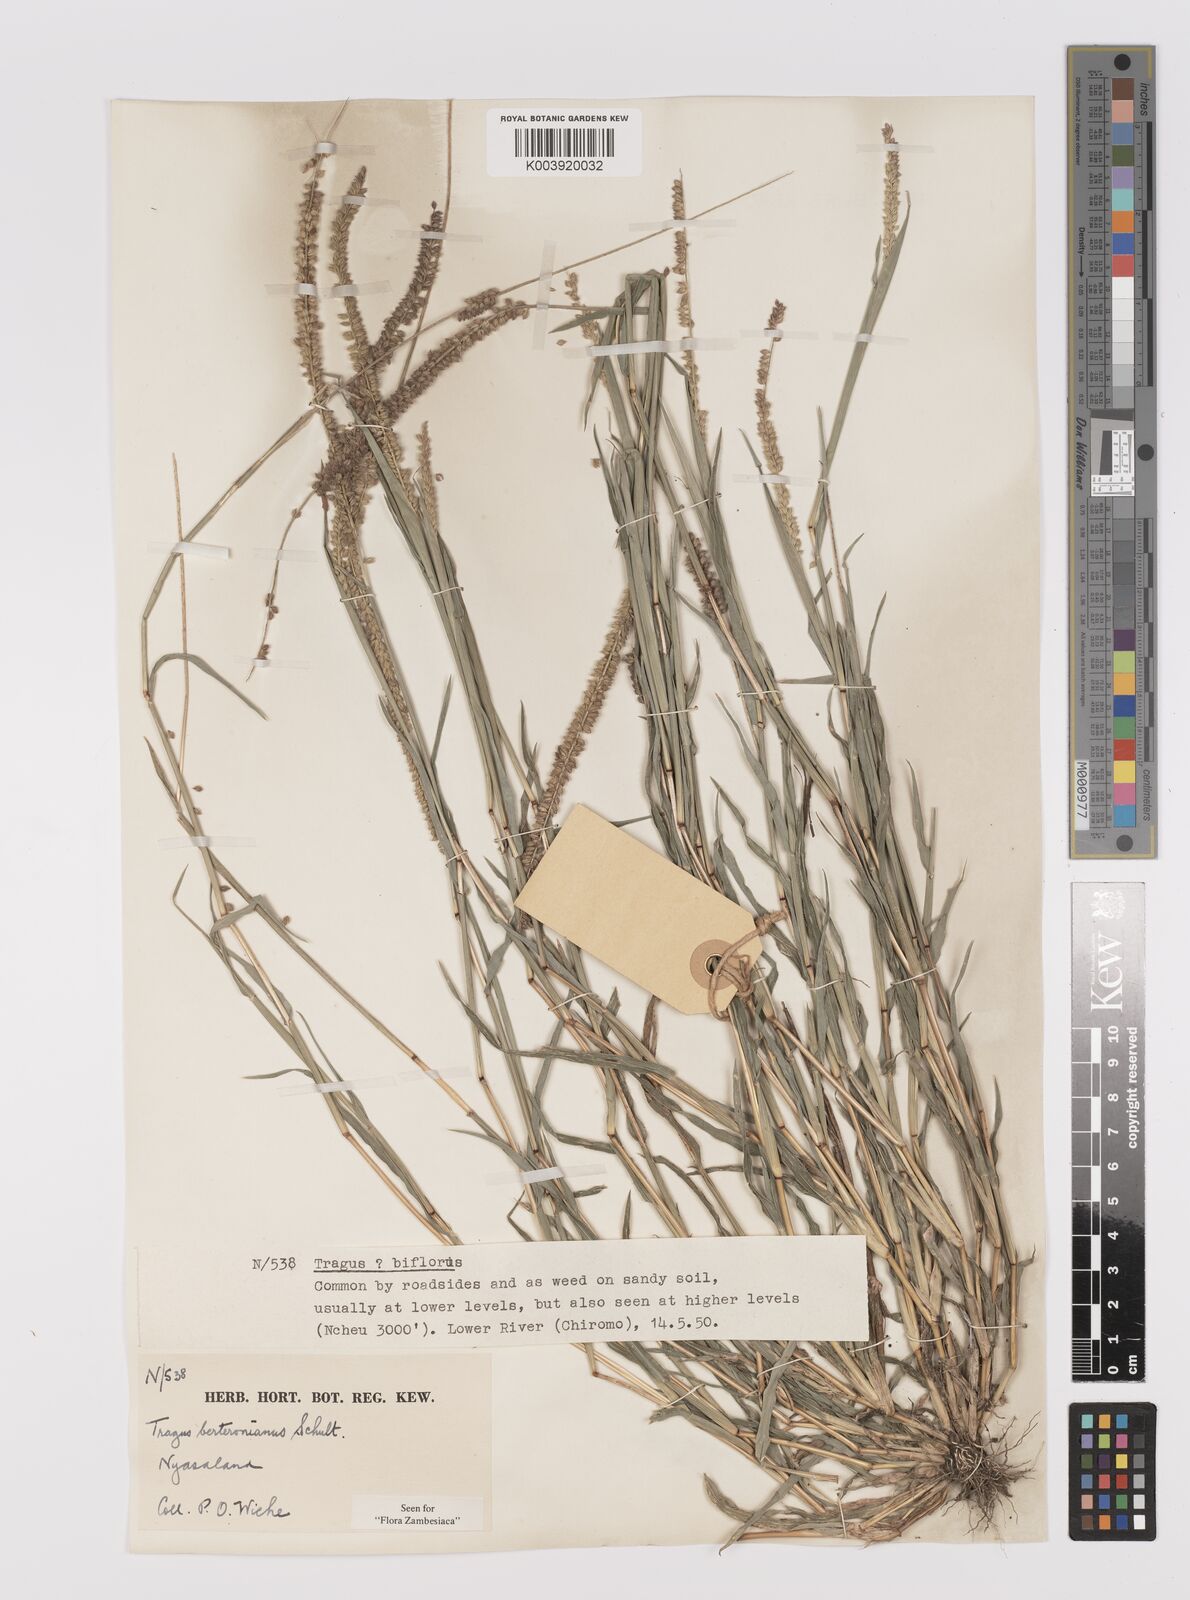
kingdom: Plantae
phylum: Tracheophyta
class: Liliopsida
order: Poales
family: Poaceae
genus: Tragus
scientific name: Tragus berteronianus
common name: African bur-grass
